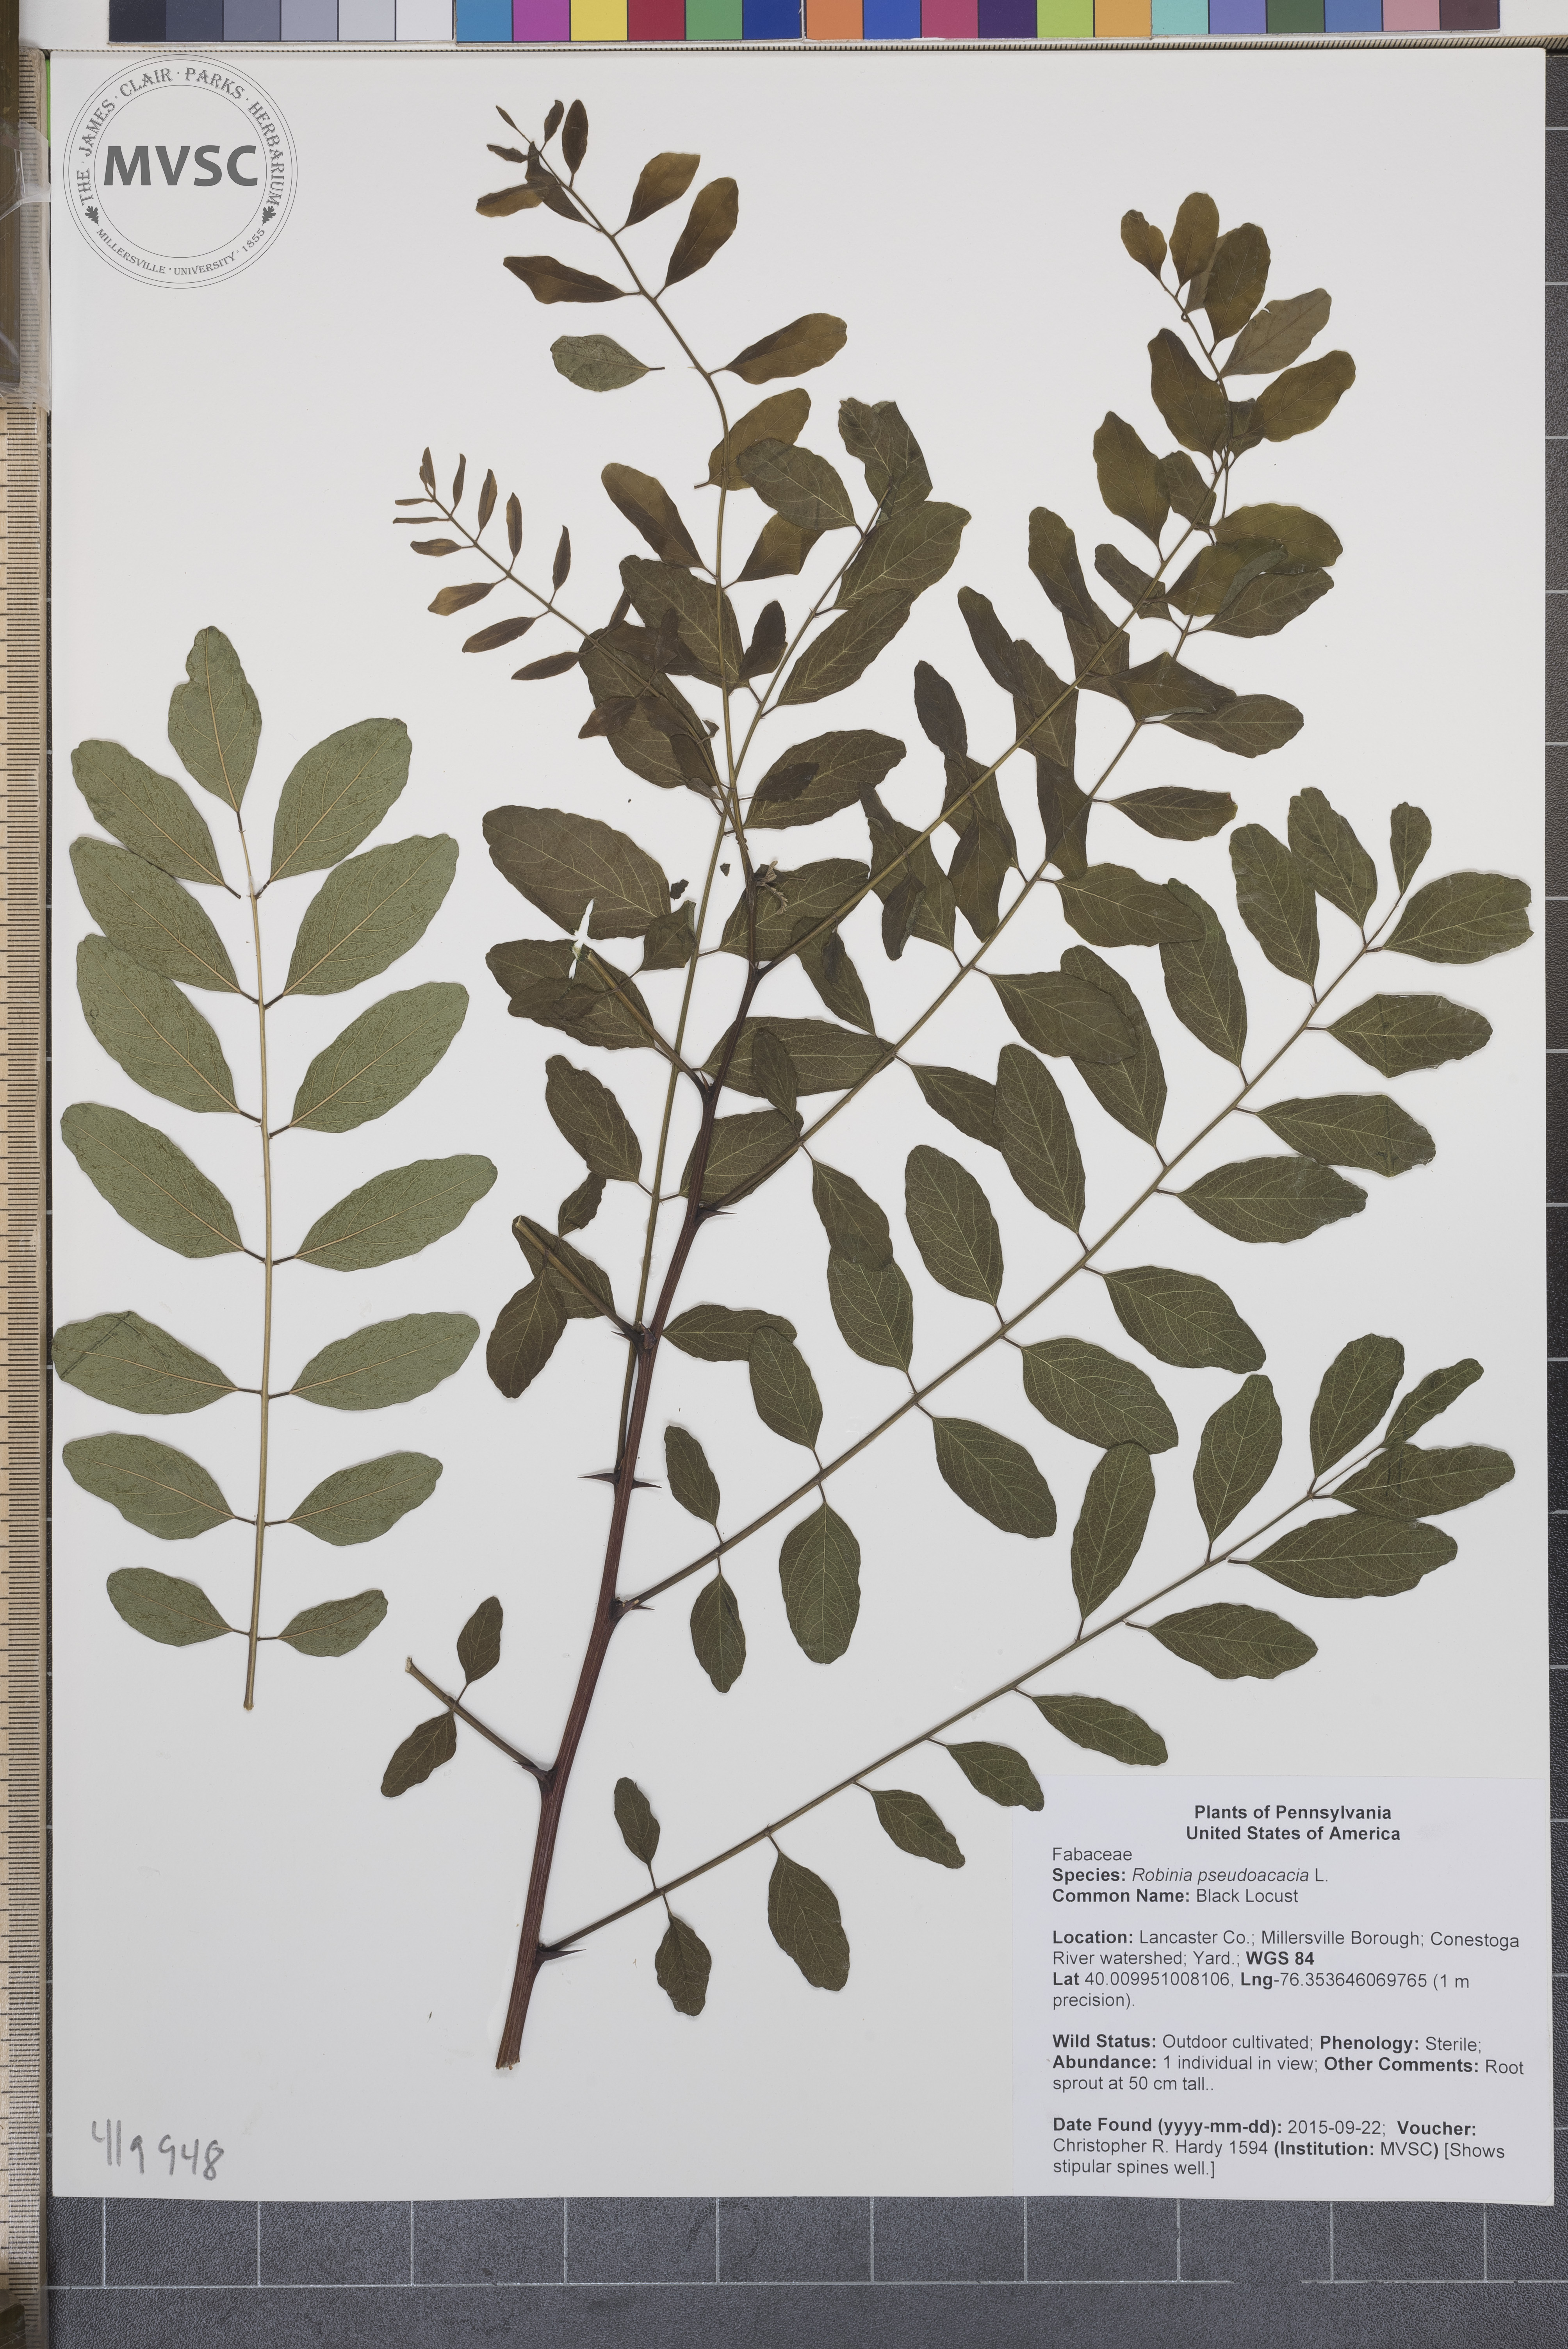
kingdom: Plantae
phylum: Tracheophyta
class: Magnoliopsida
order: Fabales
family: Fabaceae
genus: Robinia
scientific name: Robinia pseudoacacia
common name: Black Locust
